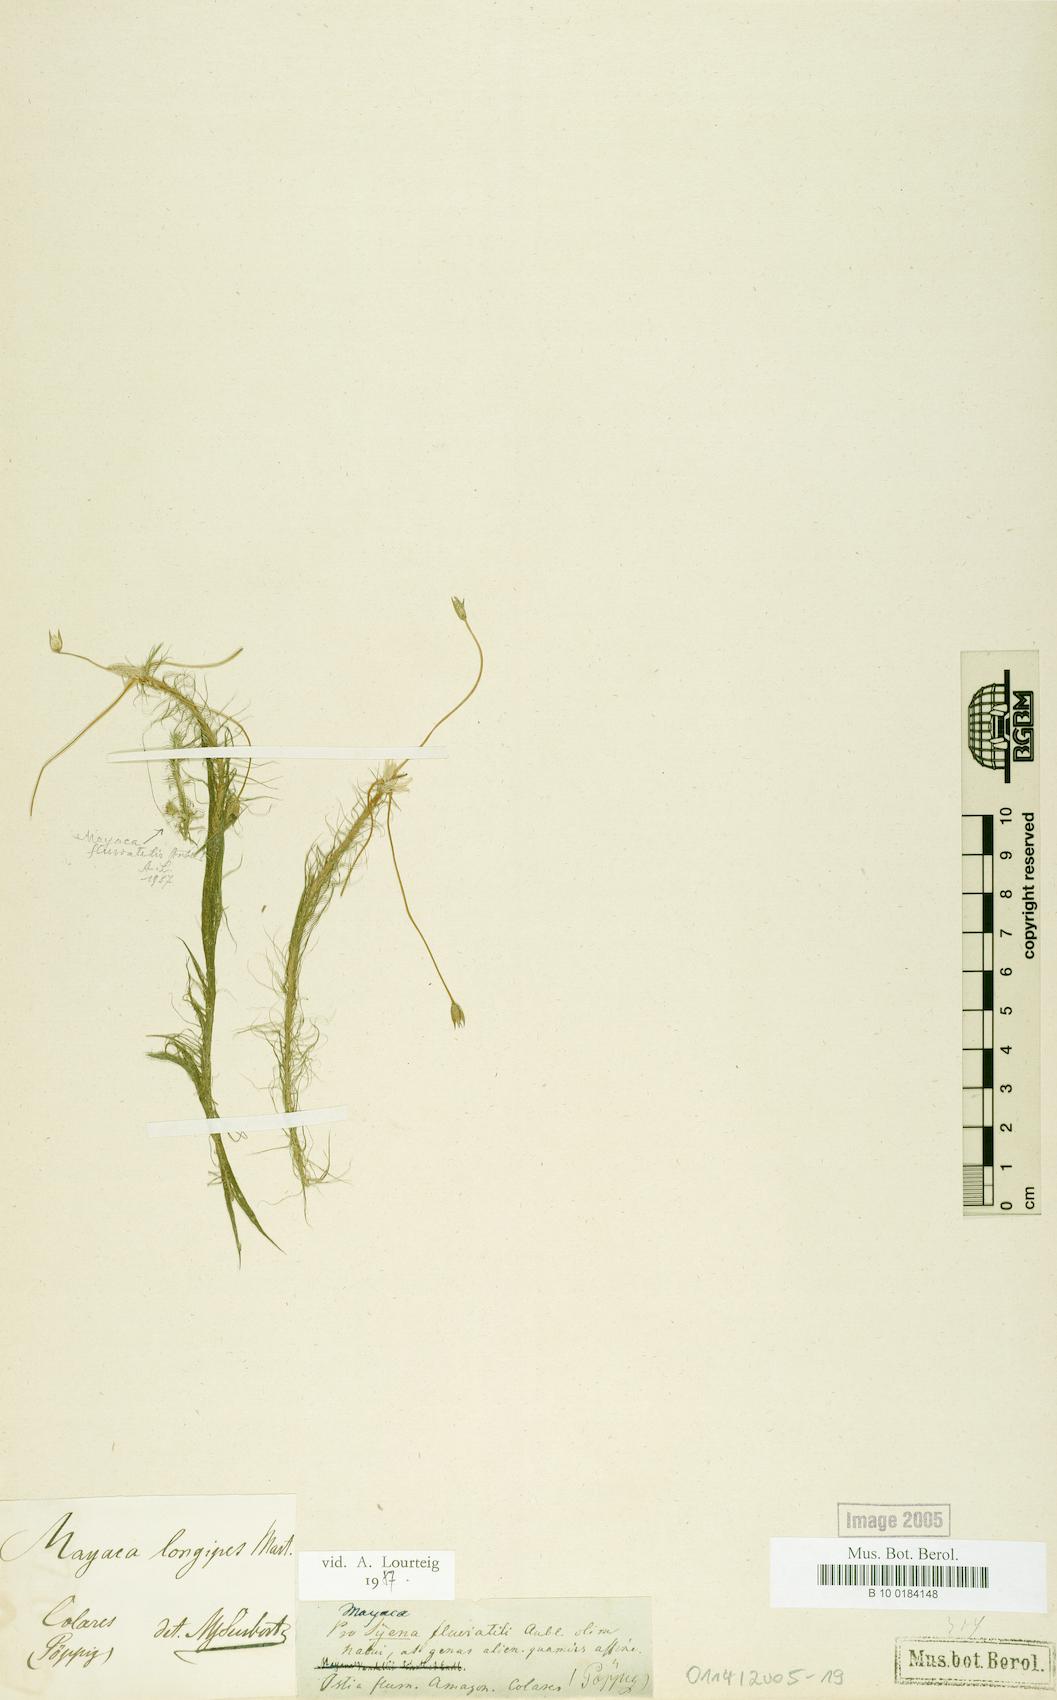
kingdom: Plantae
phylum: Tracheophyta
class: Liliopsida
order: Poales
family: Mayacaceae
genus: Mayaca
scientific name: Mayaca longipes
